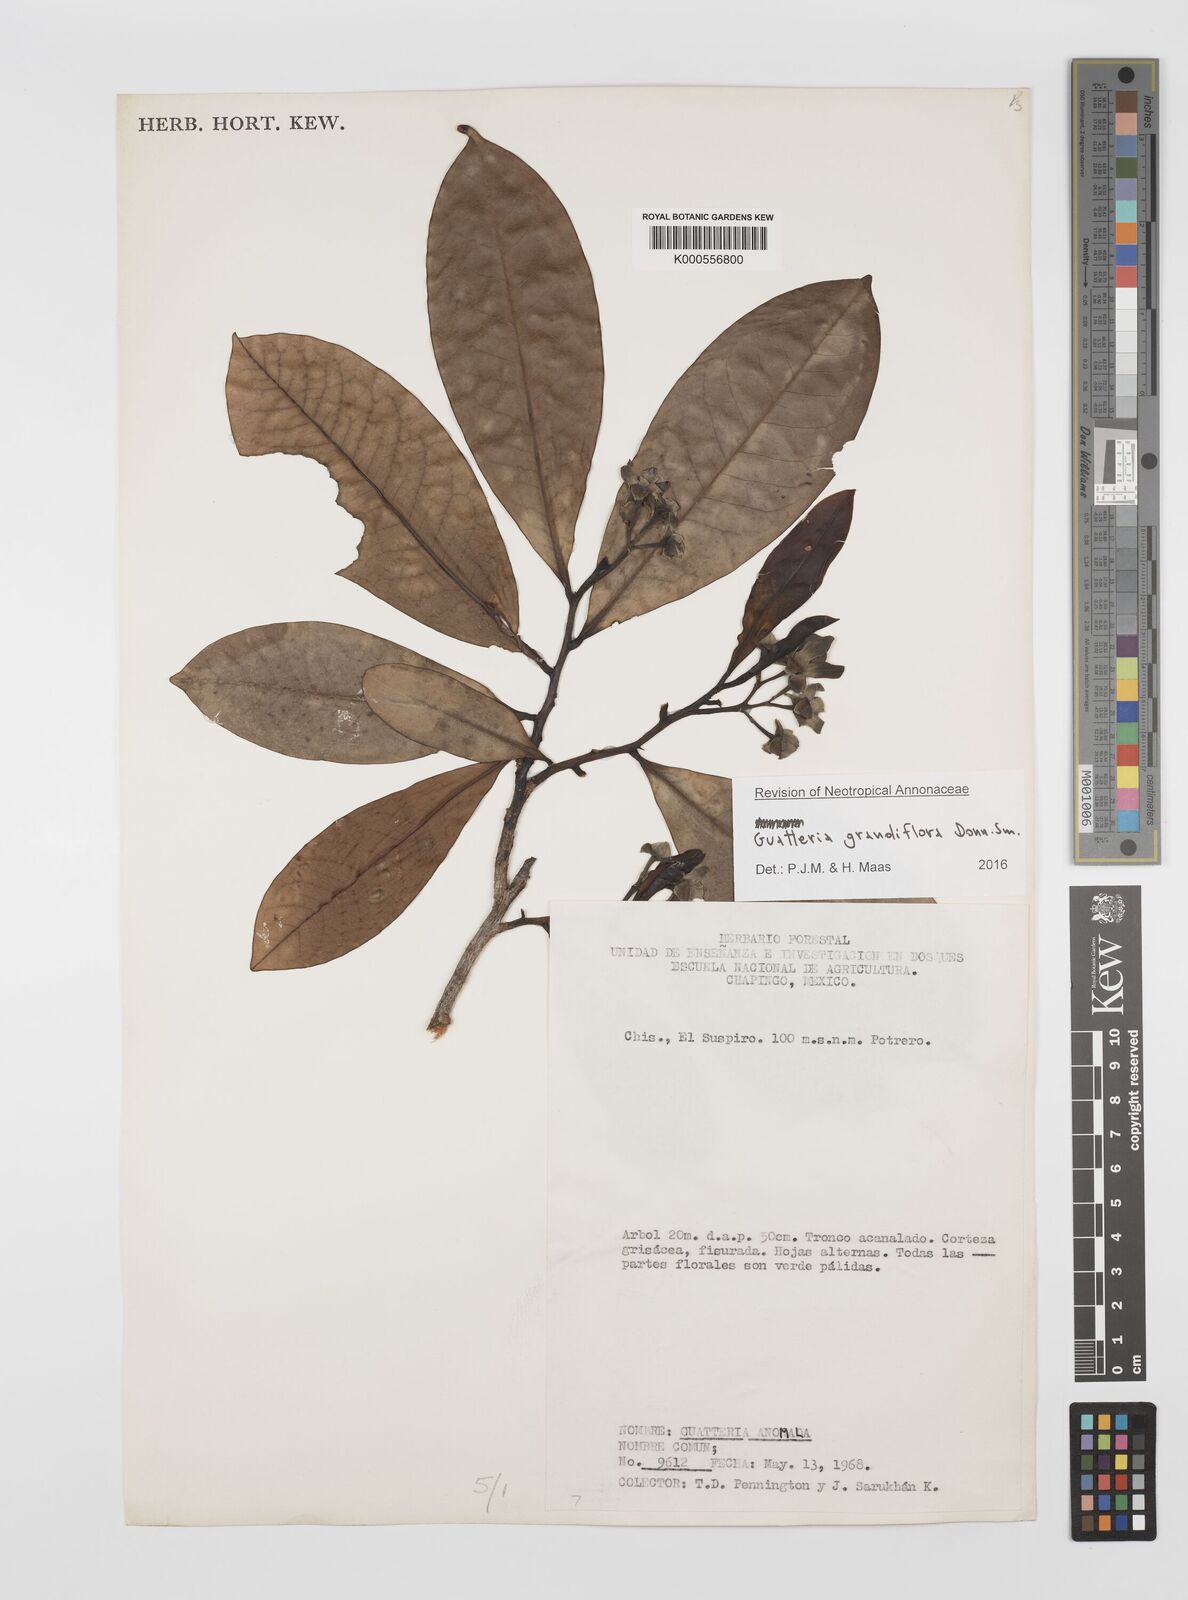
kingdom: Plantae
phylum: Tracheophyta
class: Magnoliopsida
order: Magnoliales
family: Annonaceae
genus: Guatteria
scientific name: Guatteria grandiflora
